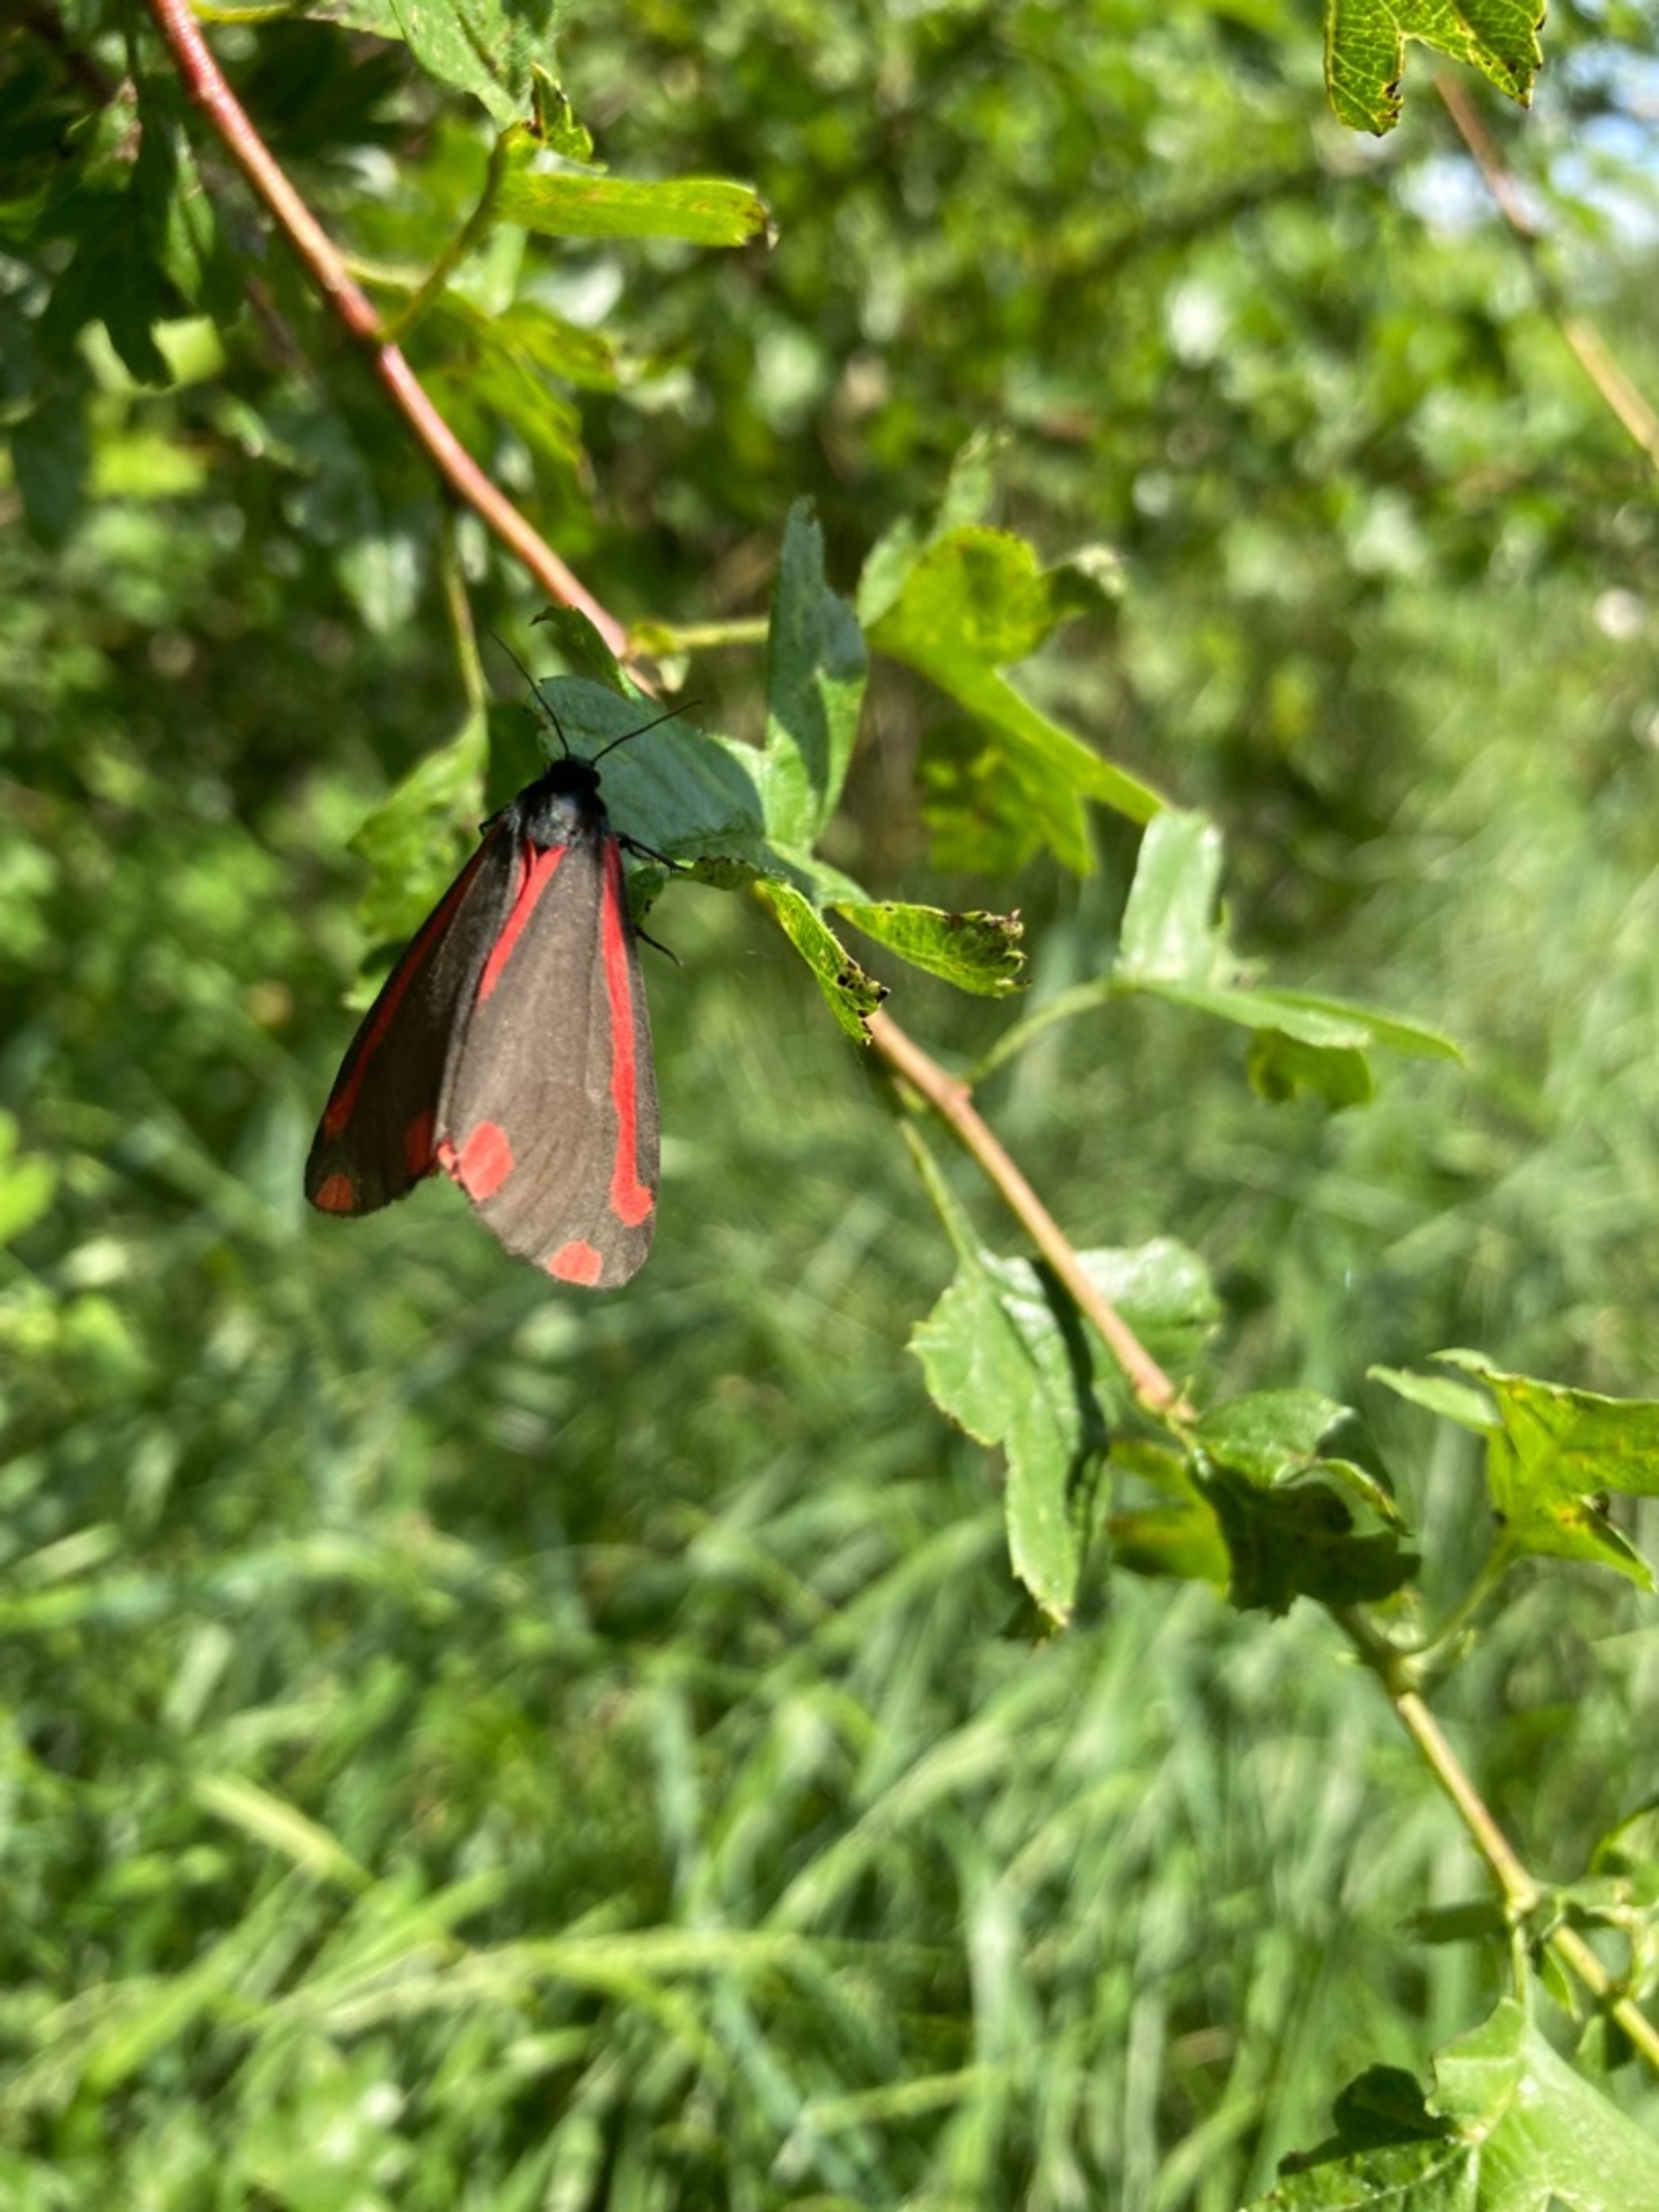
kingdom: Animalia
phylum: Arthropoda
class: Insecta
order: Lepidoptera
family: Erebidae
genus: Tyria
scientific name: Tyria jacobaeae
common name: Blodplet
